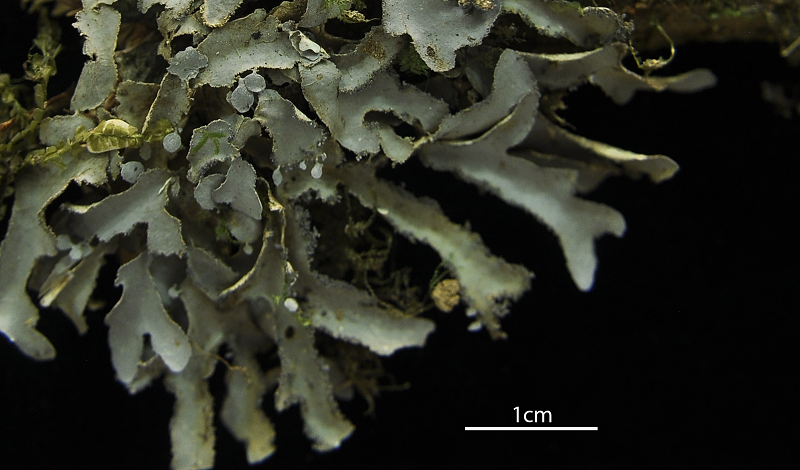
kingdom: Fungi
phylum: Ascomycota
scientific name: Ascomycota
